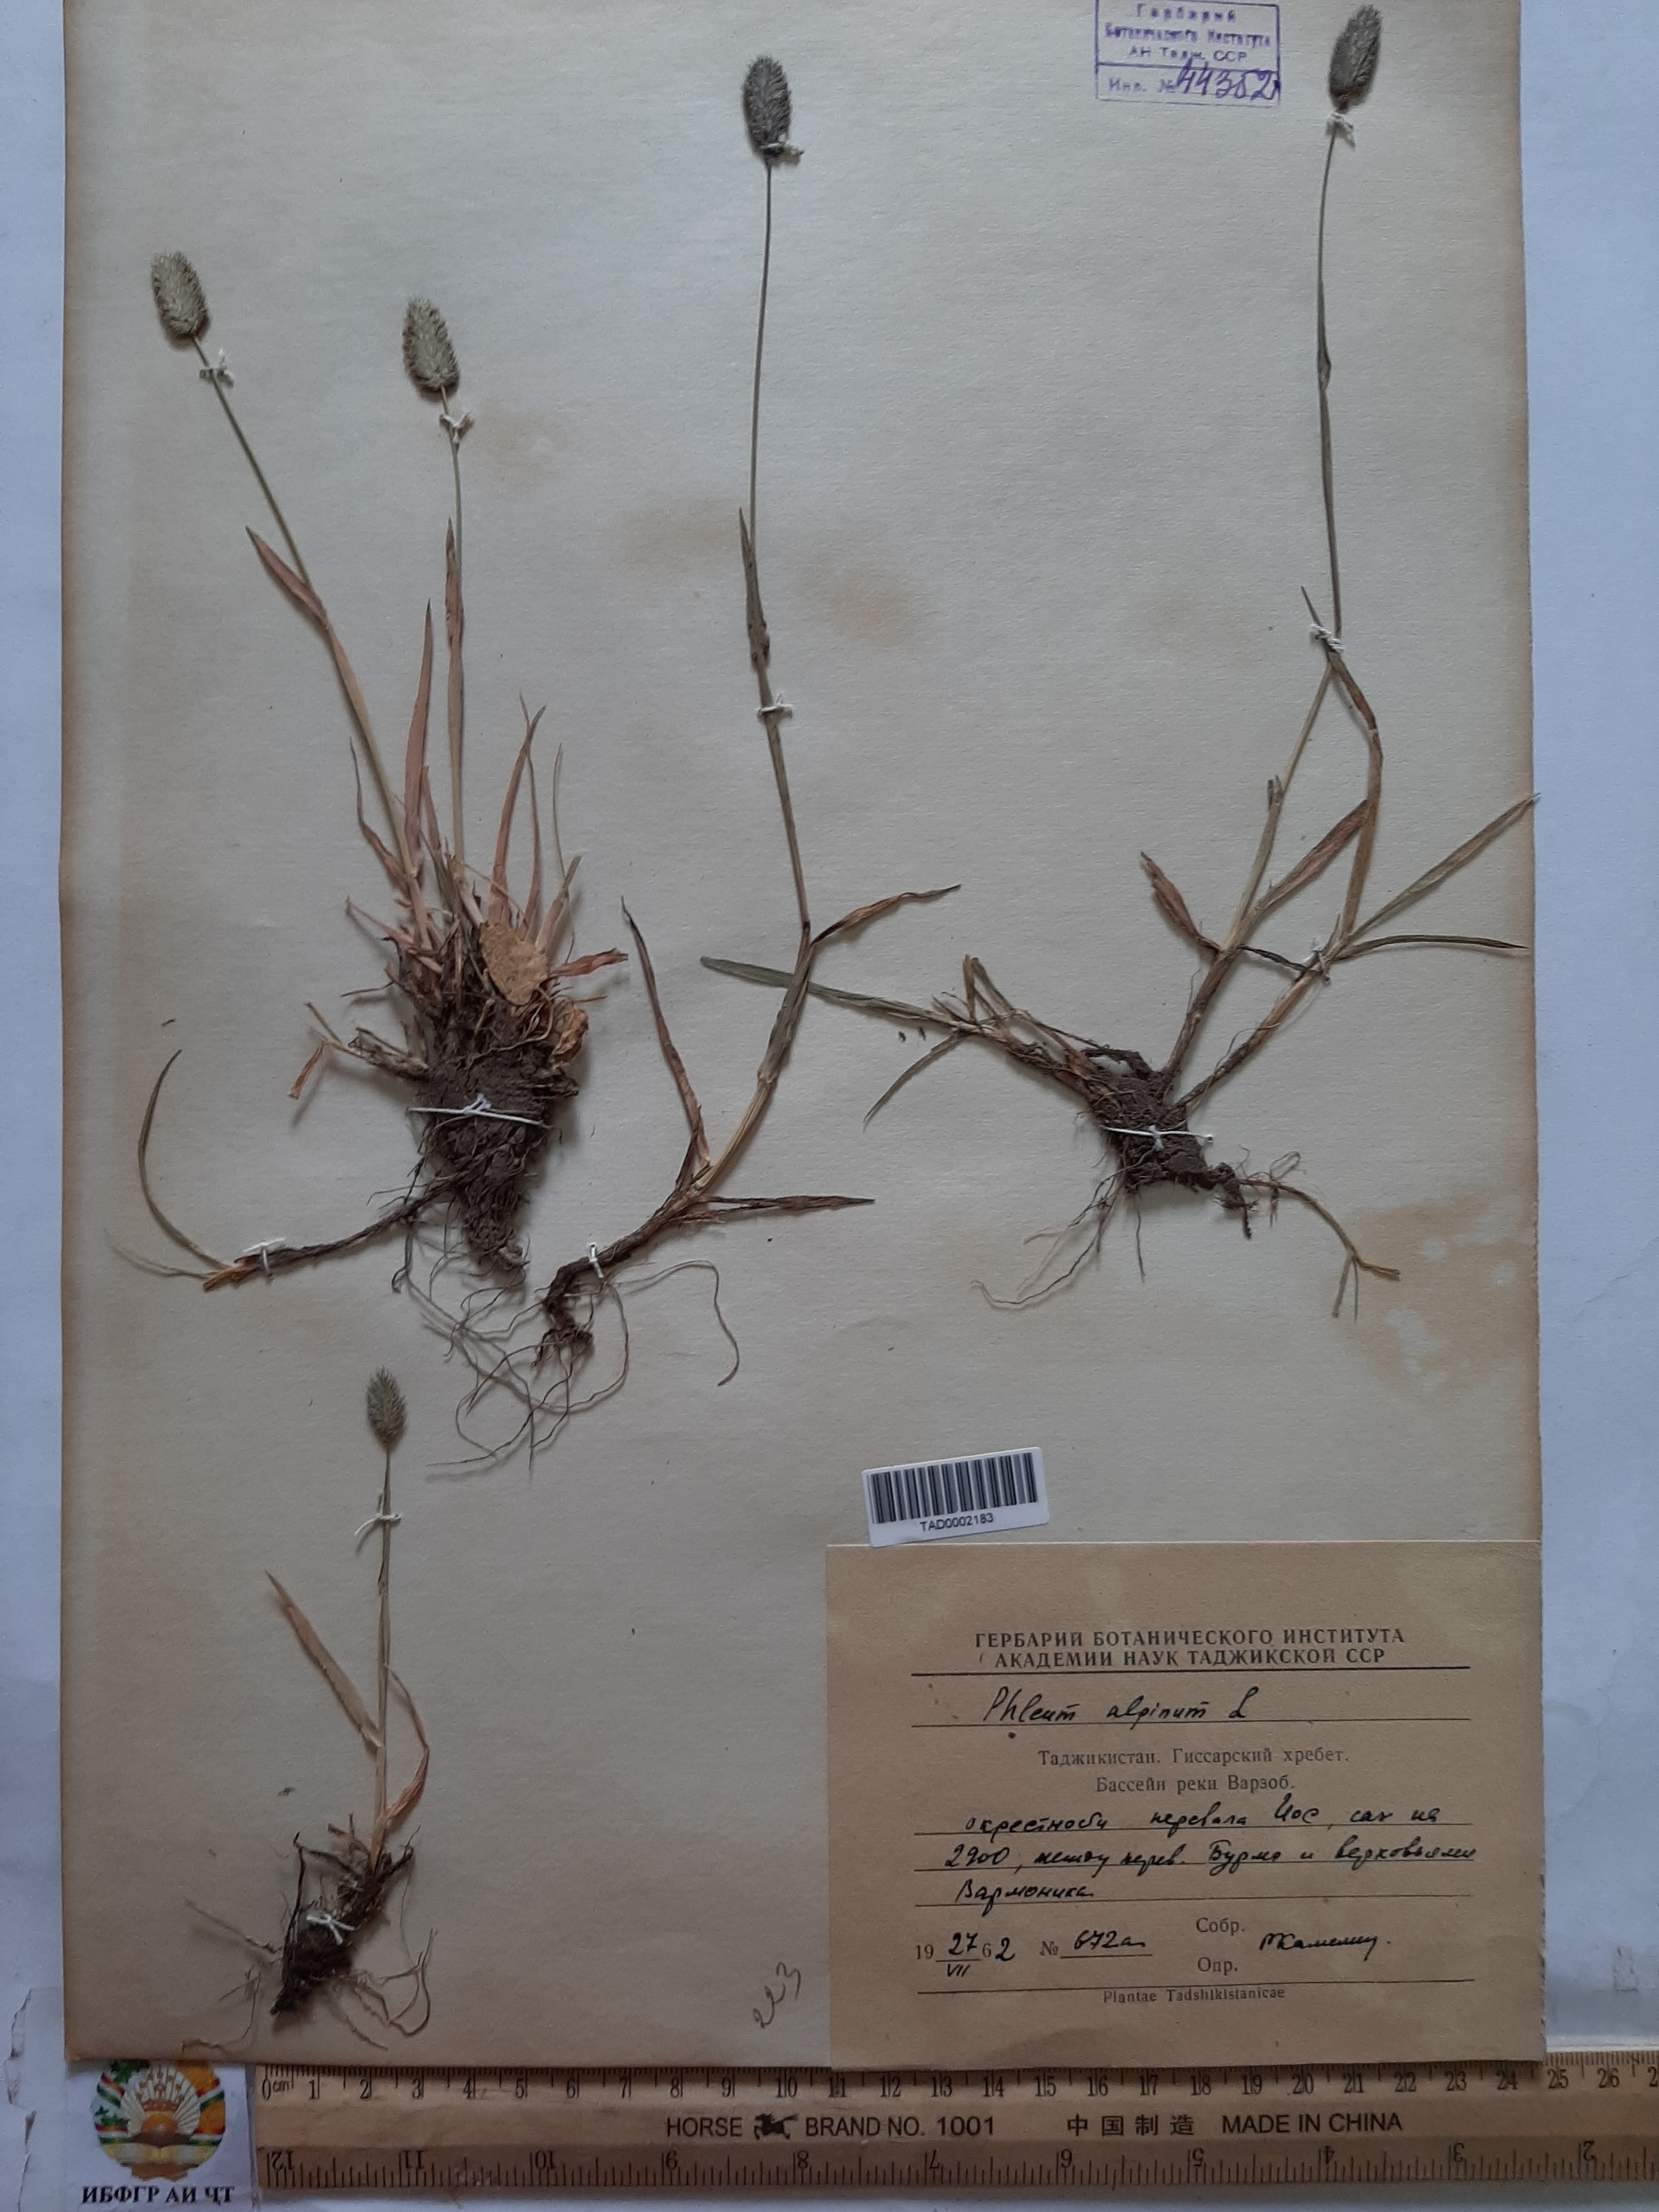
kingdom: Plantae
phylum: Tracheophyta
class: Liliopsida
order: Poales
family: Poaceae
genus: Phleum
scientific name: Phleum alpinum
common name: Alpine cat's-tail
